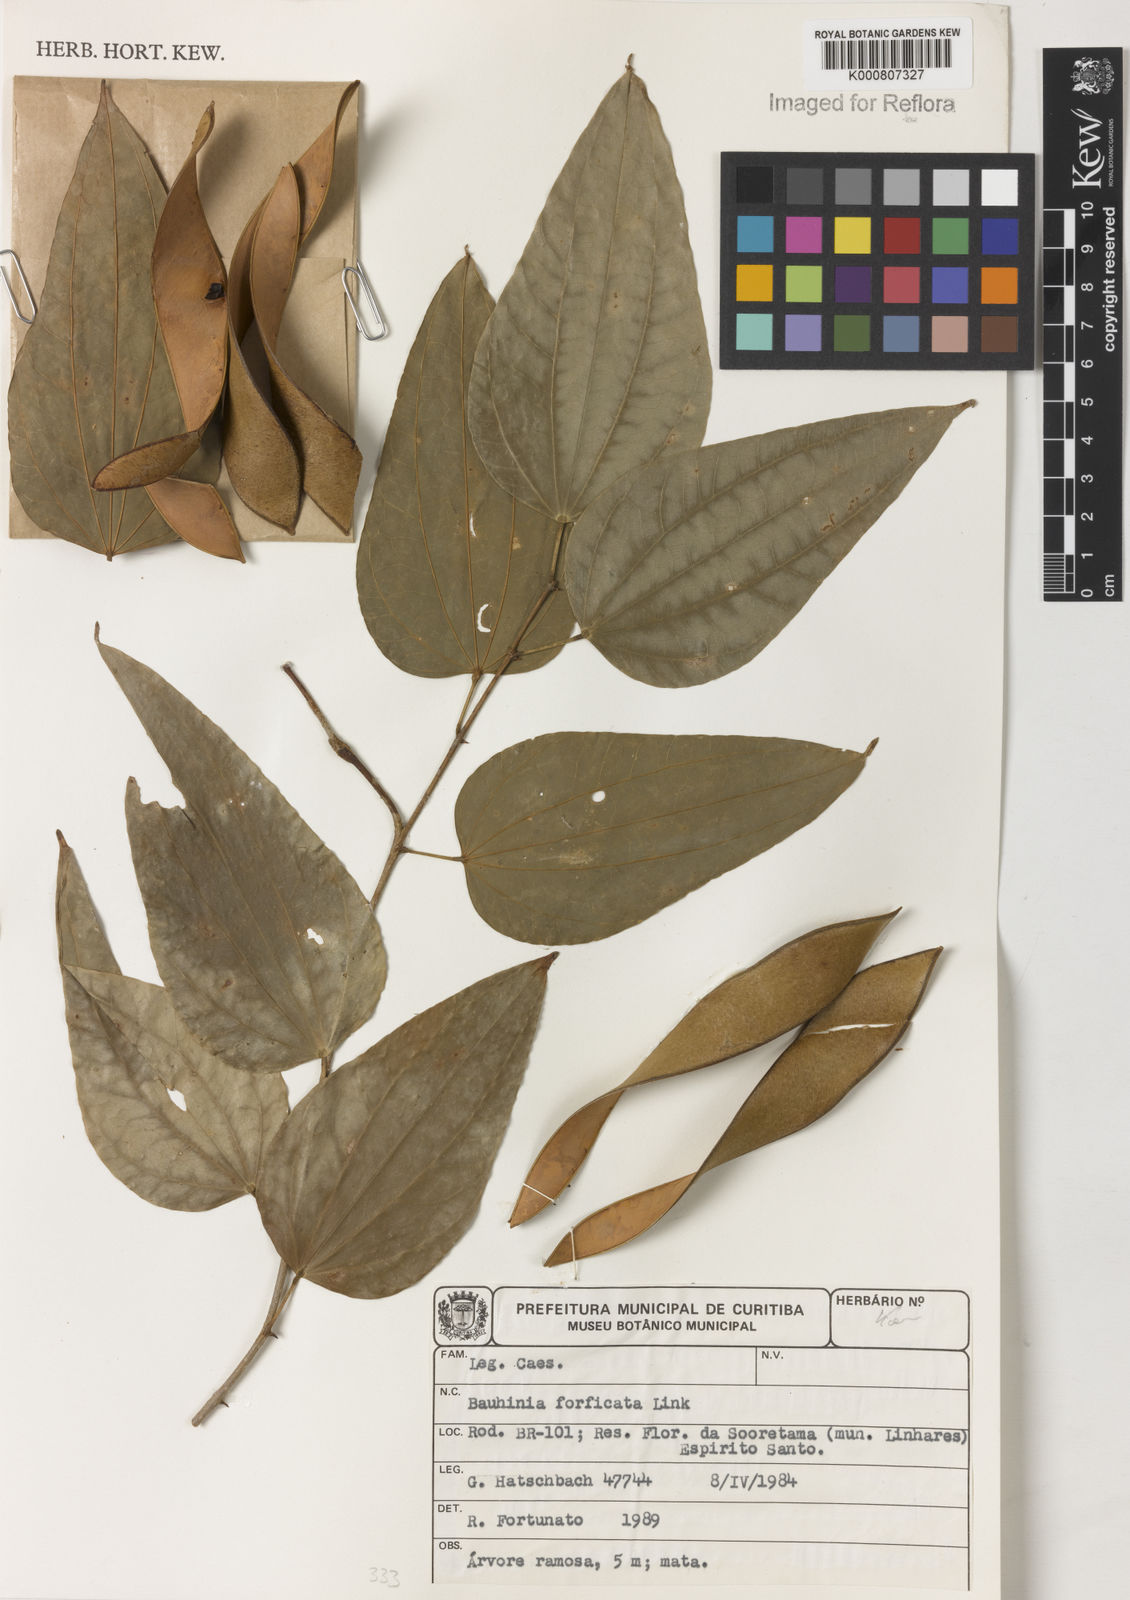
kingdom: Plantae
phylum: Tracheophyta
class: Magnoliopsida
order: Fabales
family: Fabaceae
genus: Bauhinia
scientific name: Bauhinia forficata
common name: Orchid tree
